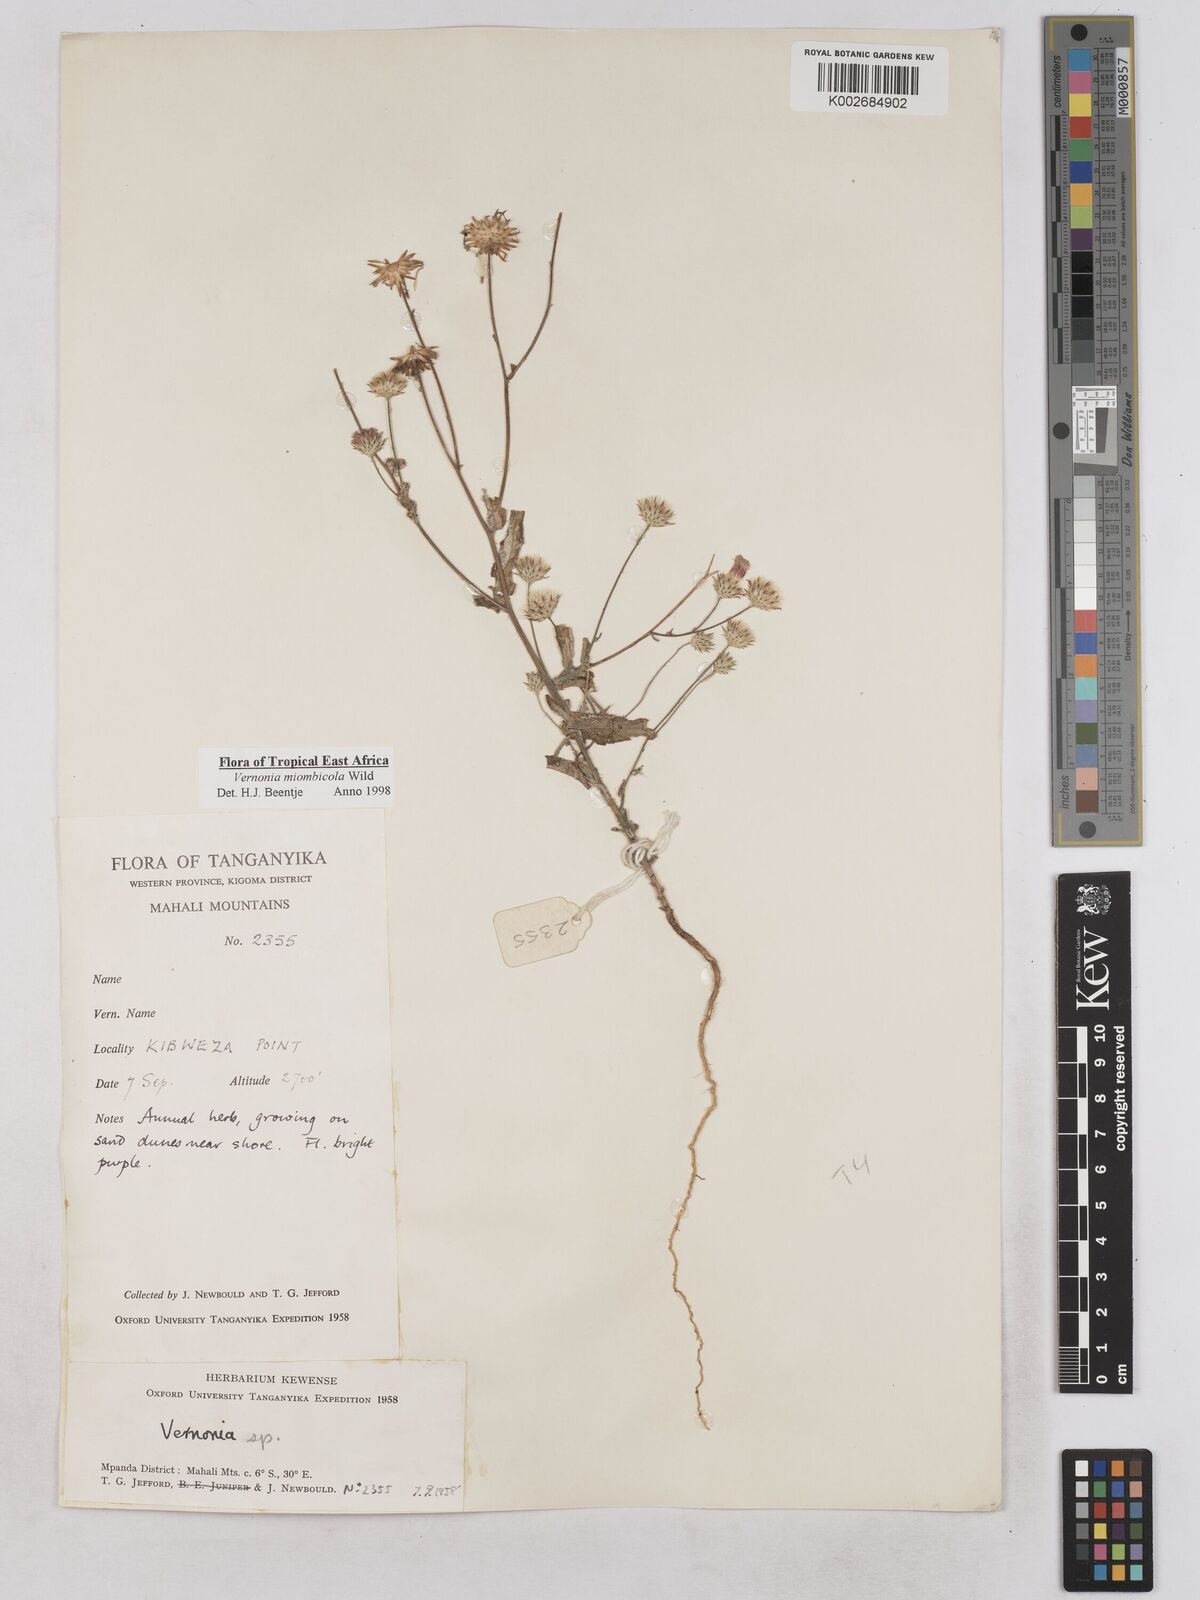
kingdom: Plantae
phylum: Tracheophyta
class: Magnoliopsida
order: Asterales
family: Asteraceae
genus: Vernonia
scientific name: Vernonia miombicola
